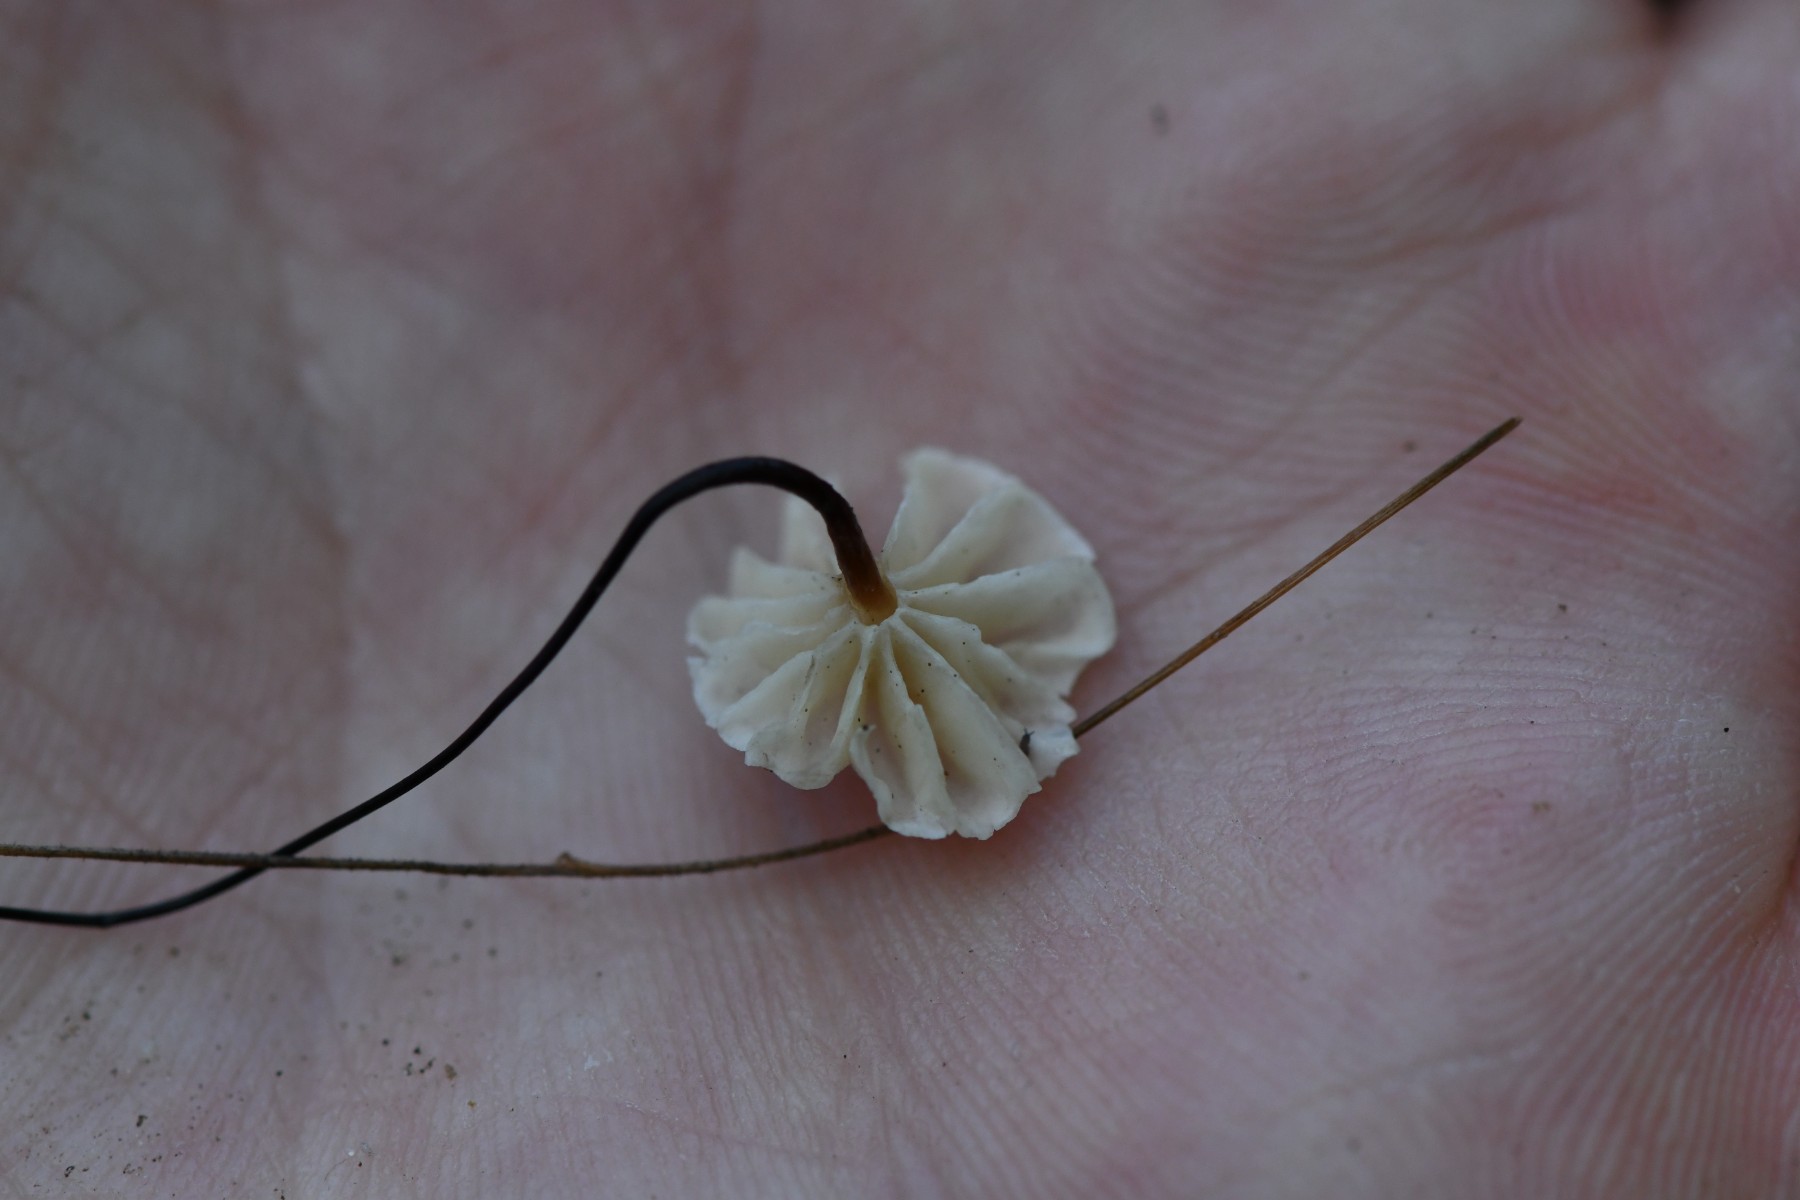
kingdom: Fungi
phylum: Basidiomycota
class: Agaricomycetes
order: Agaricales
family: Marasmiaceae
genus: Marasmius
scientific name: Marasmius rotula
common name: hjul-bruskhat
